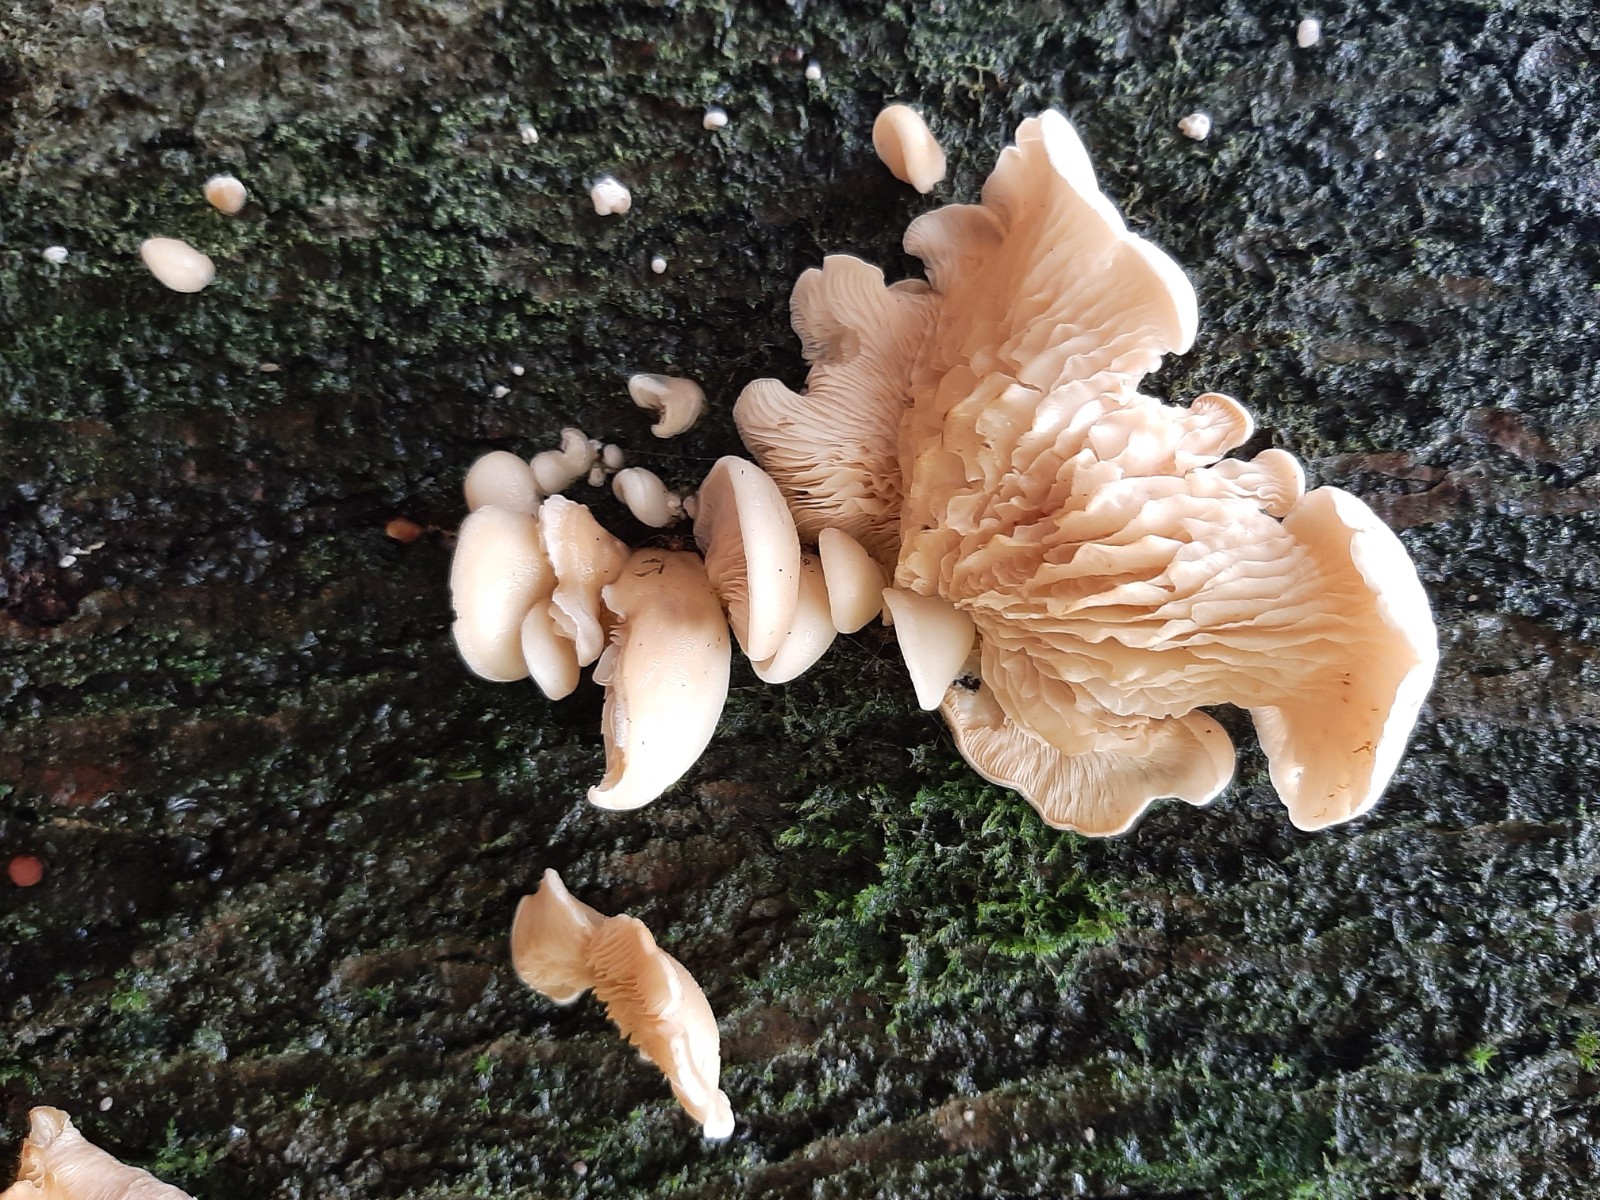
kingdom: Fungi
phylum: Basidiomycota
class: Agaricomycetes
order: Russulales
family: Auriscalpiaceae
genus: Lentinellus
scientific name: Lentinellus cochleatus
